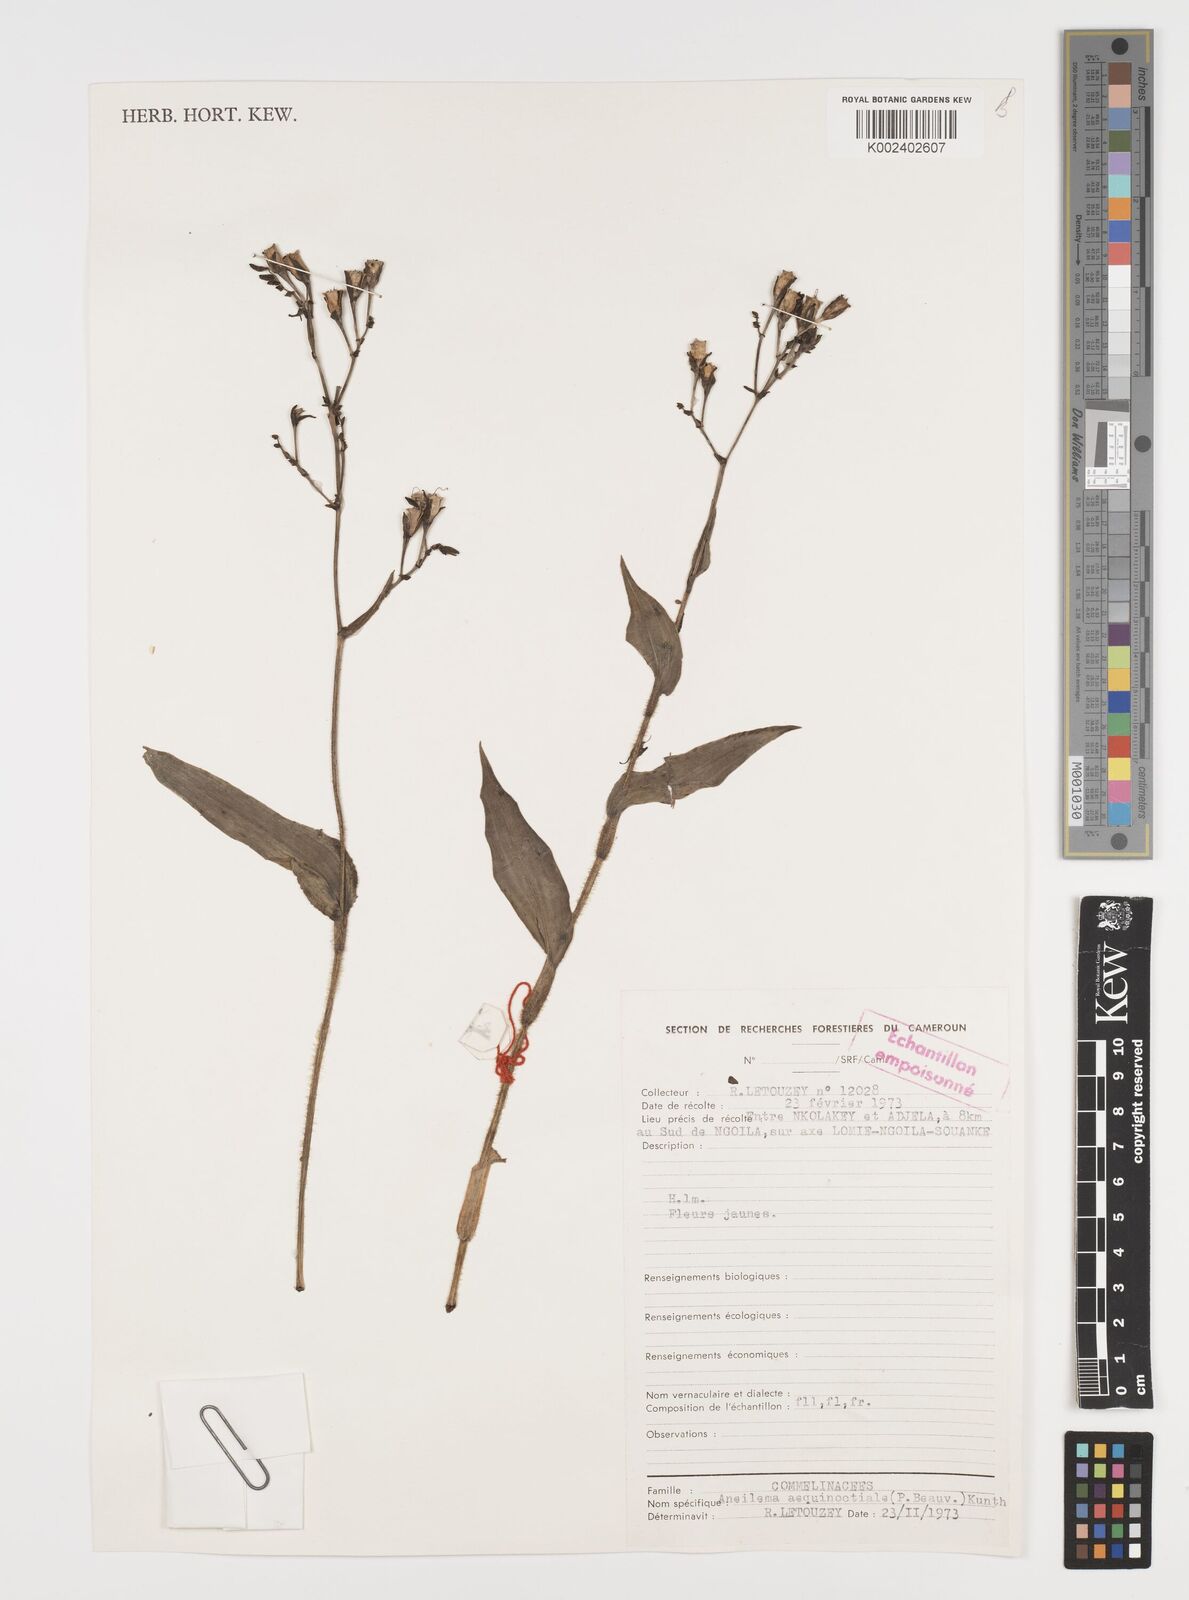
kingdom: Plantae
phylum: Tracheophyta
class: Liliopsida
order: Commelinales
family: Commelinaceae
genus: Aneilema
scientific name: Aneilema aequinoctiale
